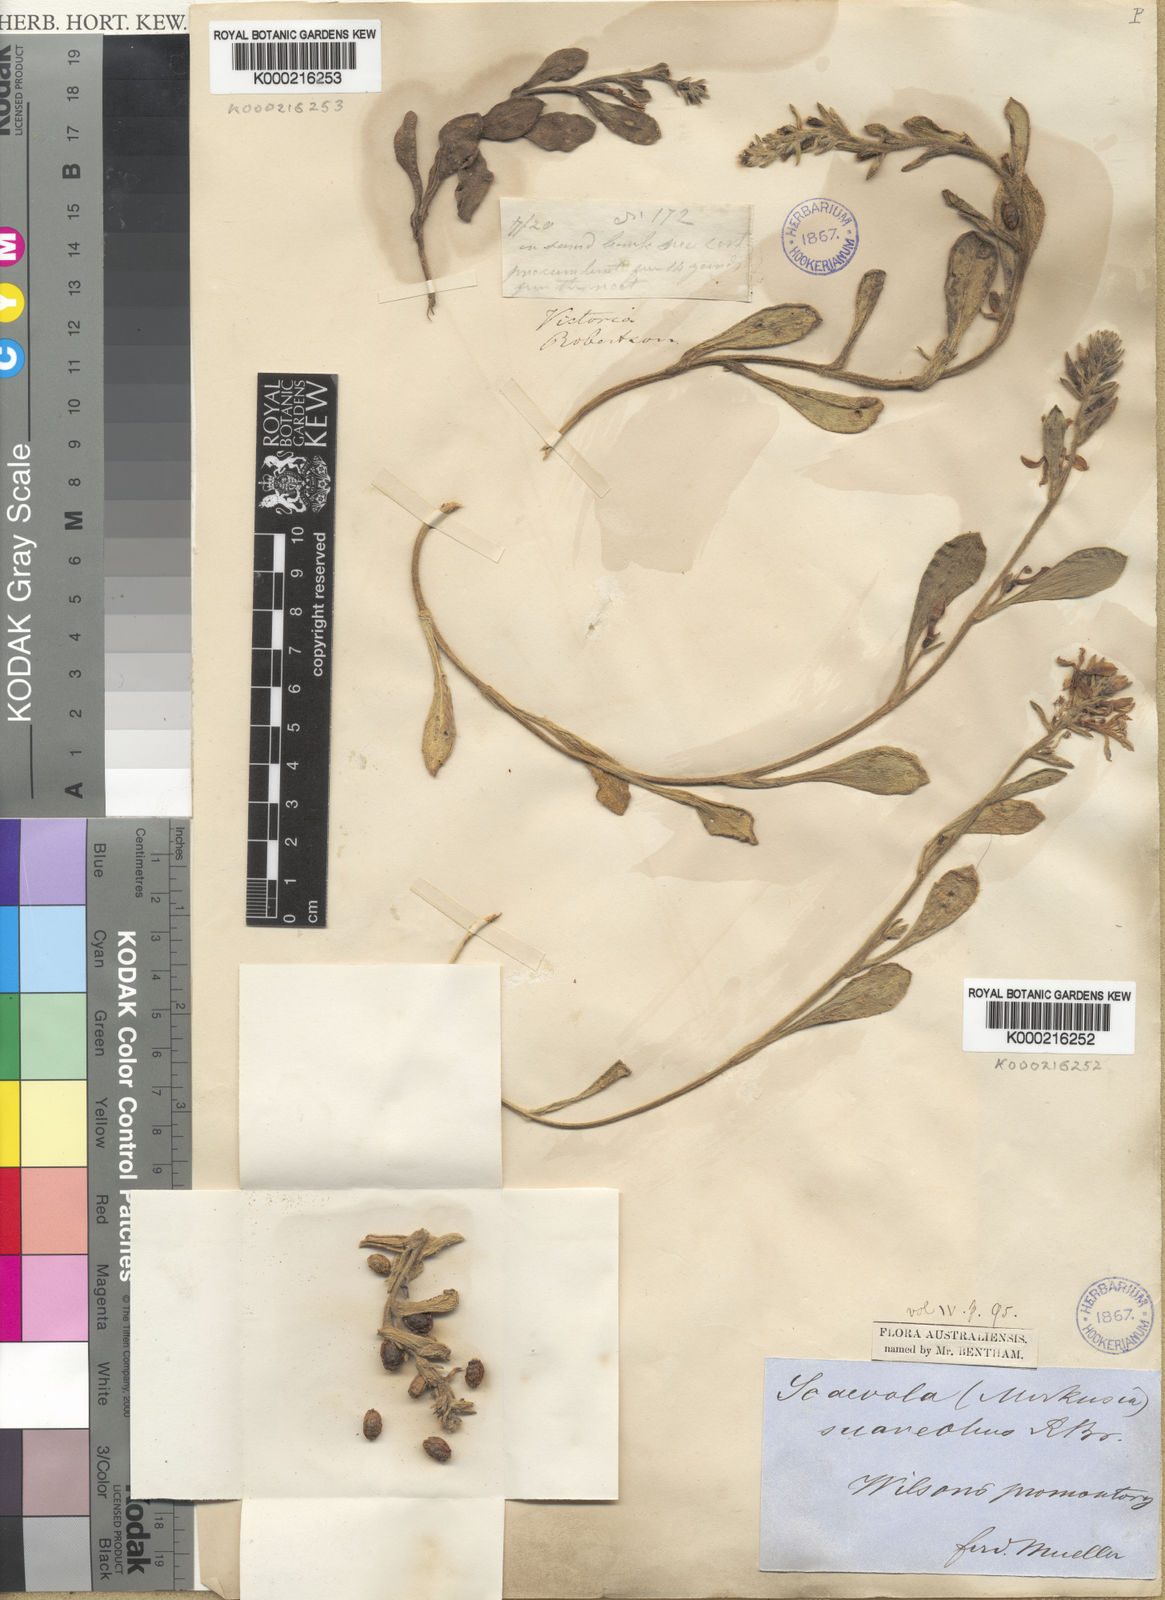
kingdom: Plantae
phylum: Tracheophyta
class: Magnoliopsida
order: Asterales
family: Goodeniaceae
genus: Scaevola
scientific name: Scaevola calendulacea
